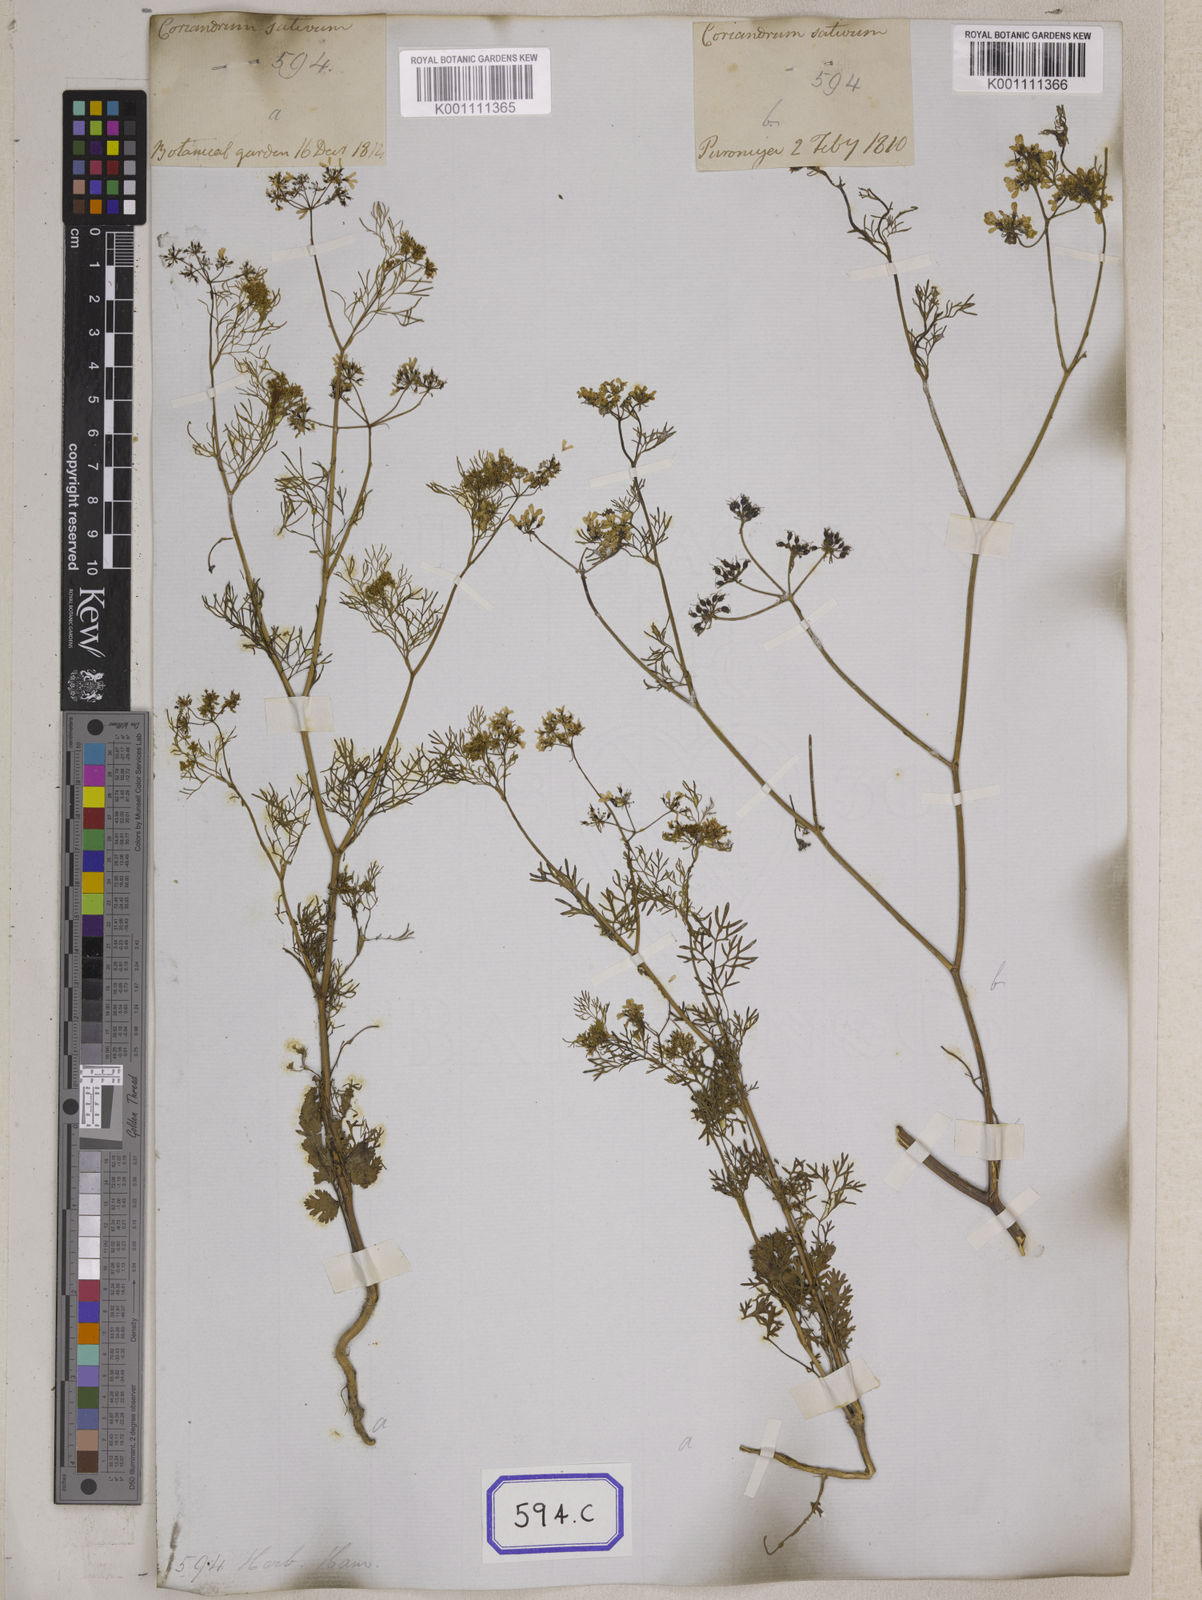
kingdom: Plantae
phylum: Tracheophyta
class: Magnoliopsida
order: Apiales
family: Apiaceae
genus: Cuminum
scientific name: Cuminum cyminum
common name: Cumin
